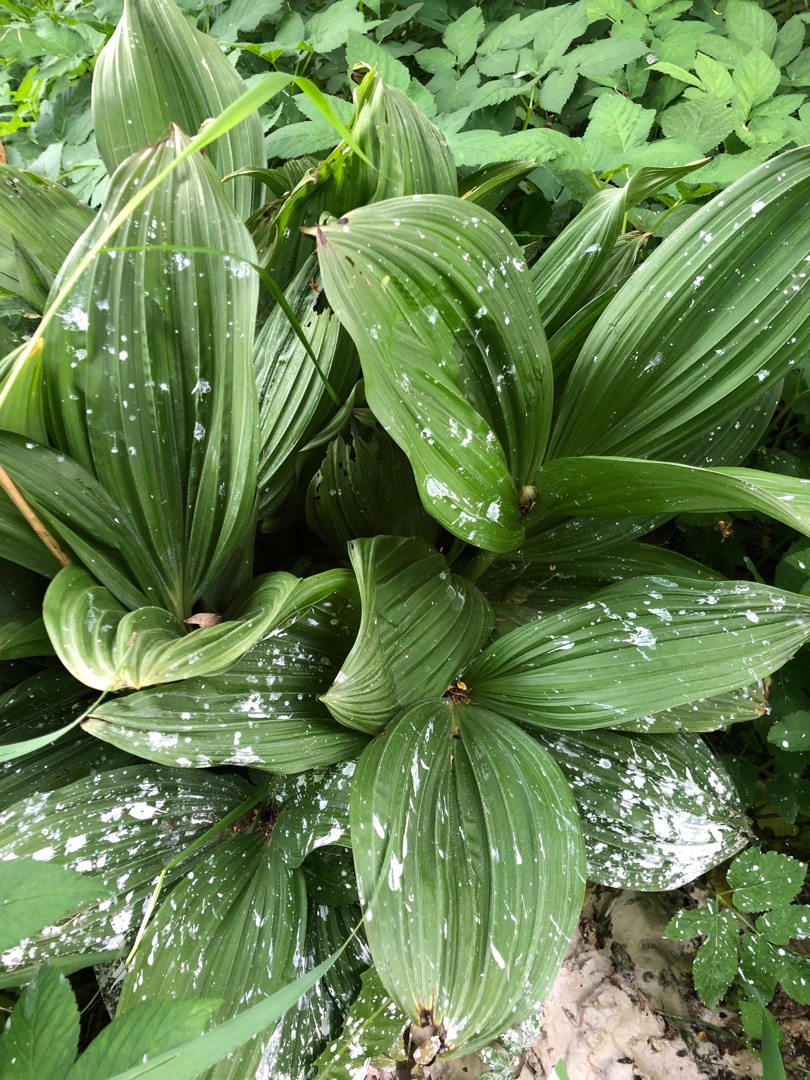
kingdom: Plantae
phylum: Tracheophyta
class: Liliopsida
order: Liliales
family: Melanthiaceae
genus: Veratrum
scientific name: Veratrum
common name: Foldbladslægten
